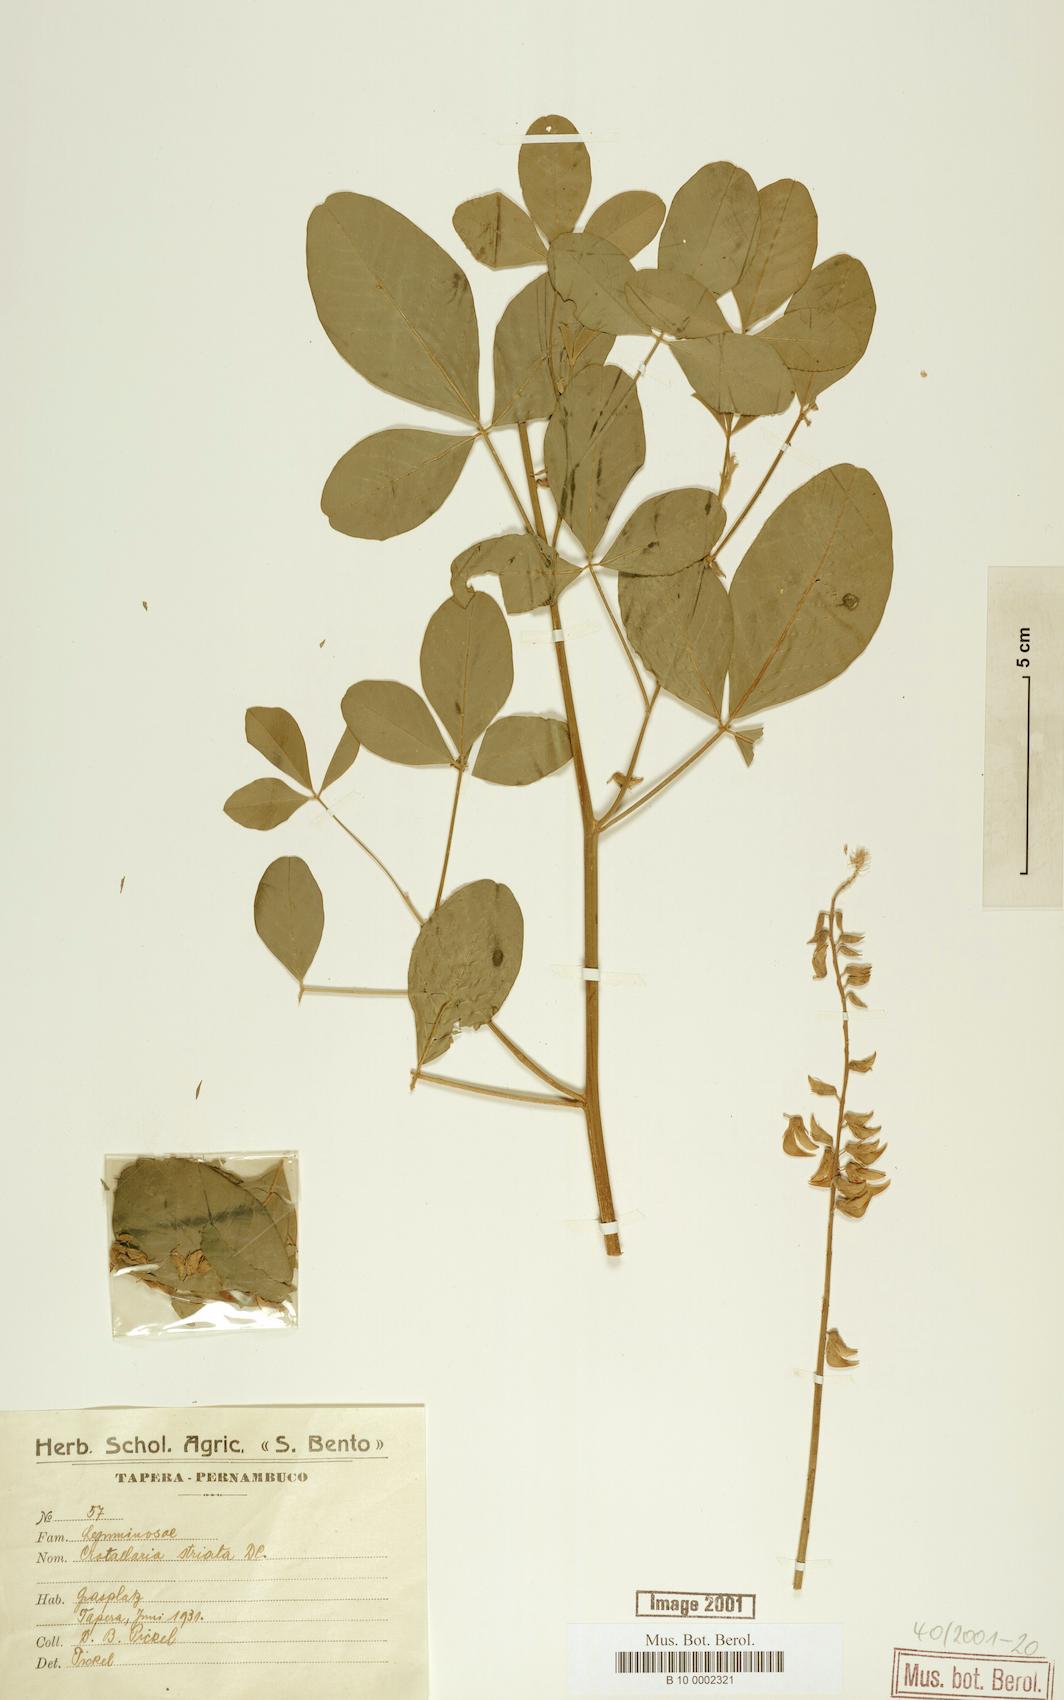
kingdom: Plantae
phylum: Tracheophyta
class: Magnoliopsida
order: Fabales
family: Fabaceae
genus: Crotalaria
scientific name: Crotalaria pallida
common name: Smooth rattlebox
